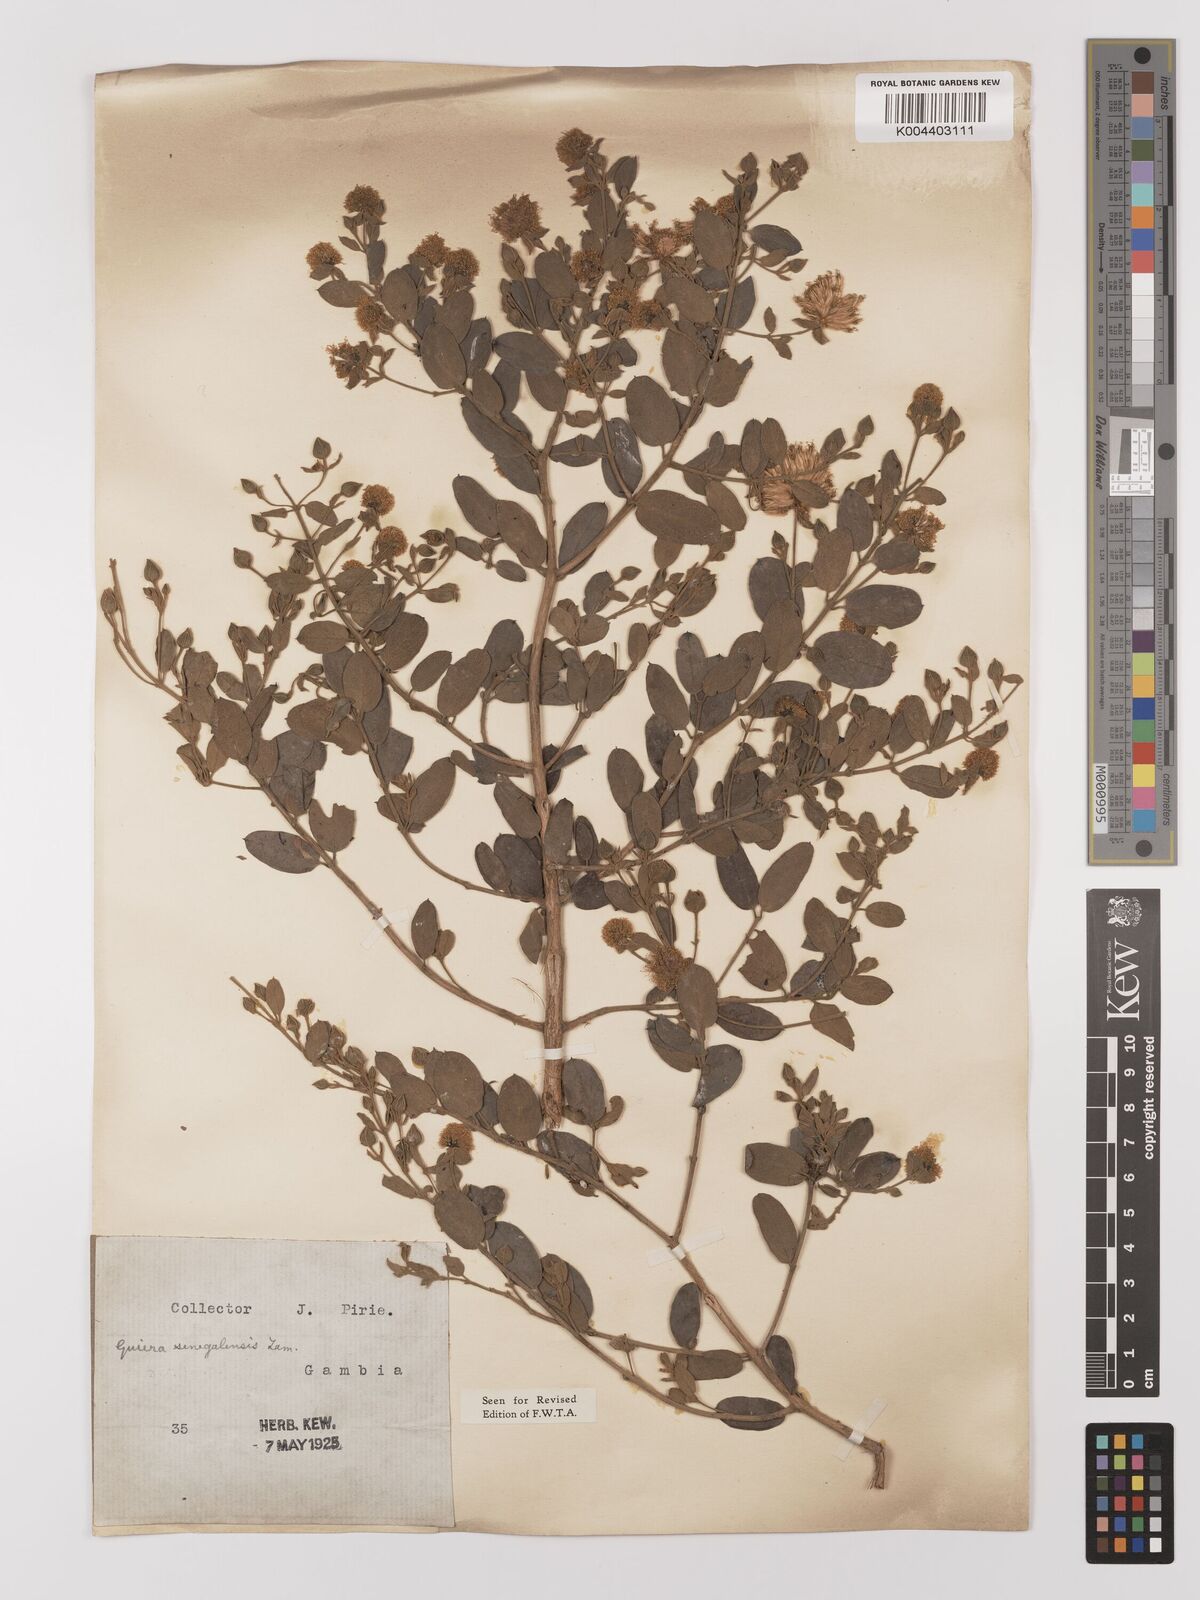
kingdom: Plantae
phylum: Tracheophyta
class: Magnoliopsida
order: Myrtales
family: Combretaceae
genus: Guiera
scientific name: Guiera senegalensis
